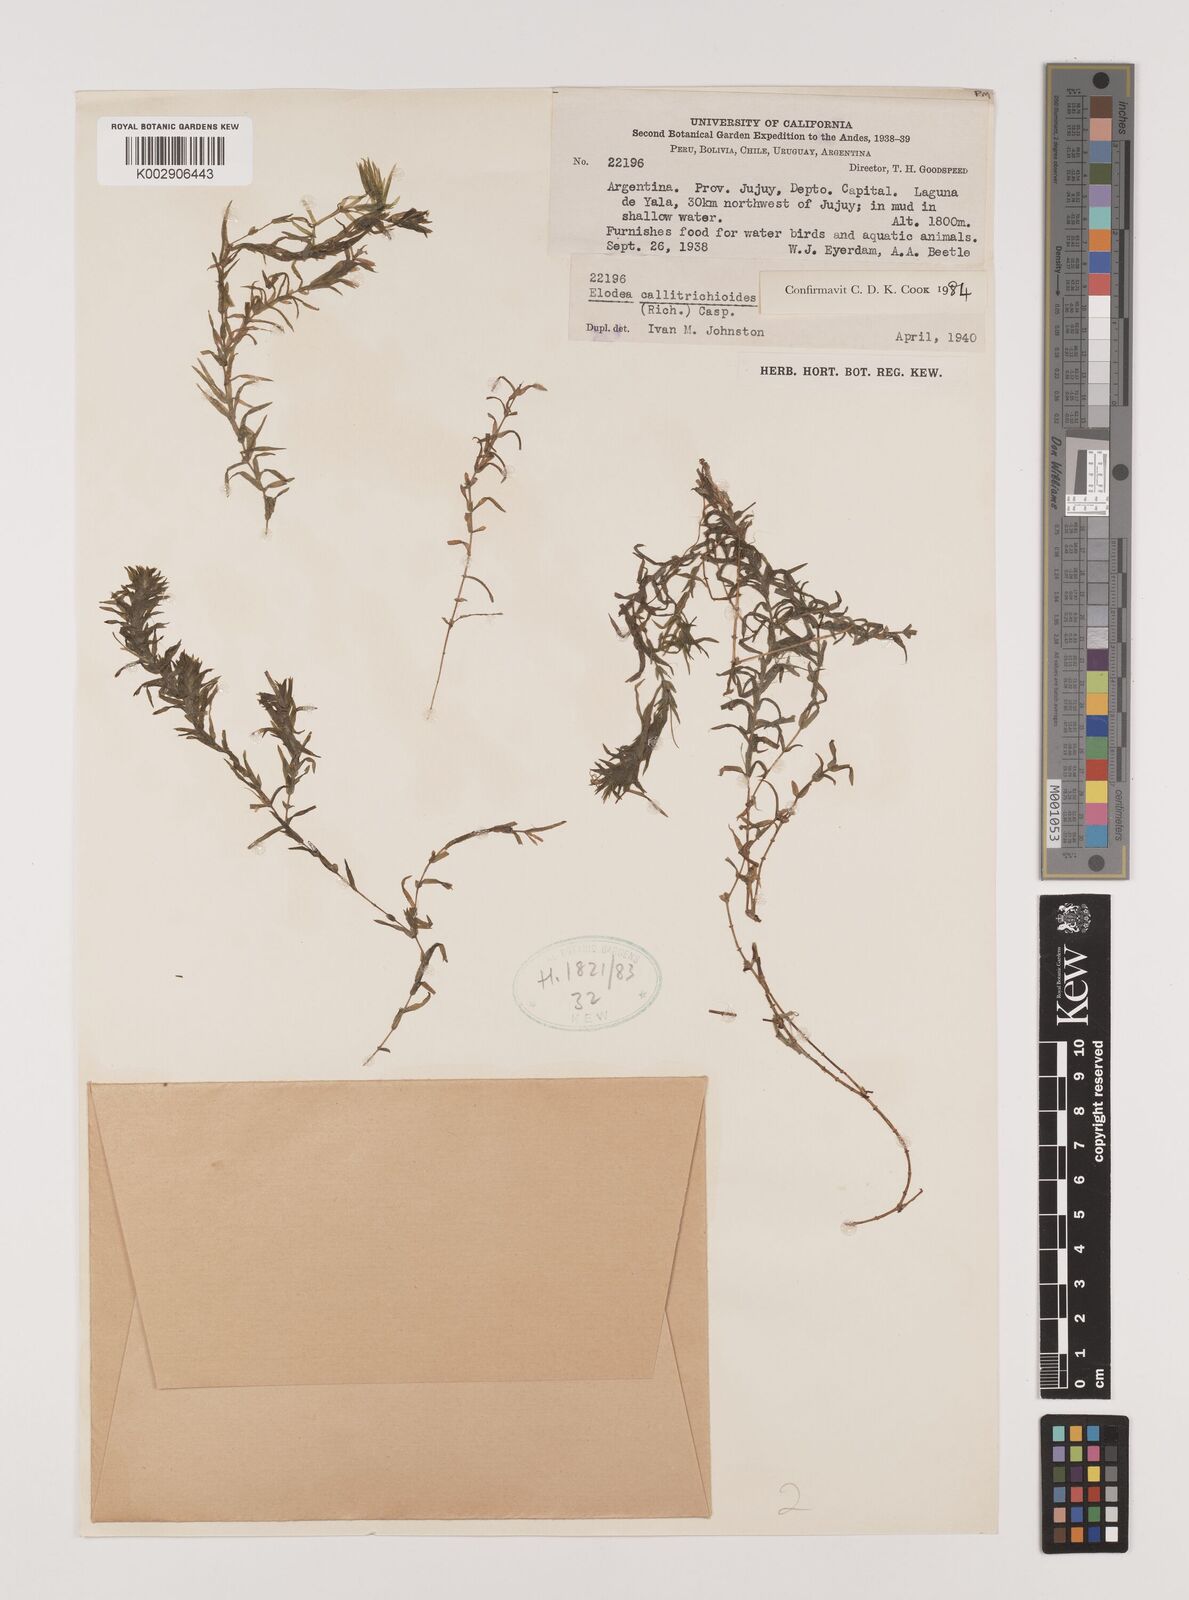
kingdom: Plantae
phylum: Tracheophyta
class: Liliopsida
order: Alismatales
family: Hydrocharitaceae
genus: Elodea
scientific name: Elodea callitrichoides
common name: South american waterweed
